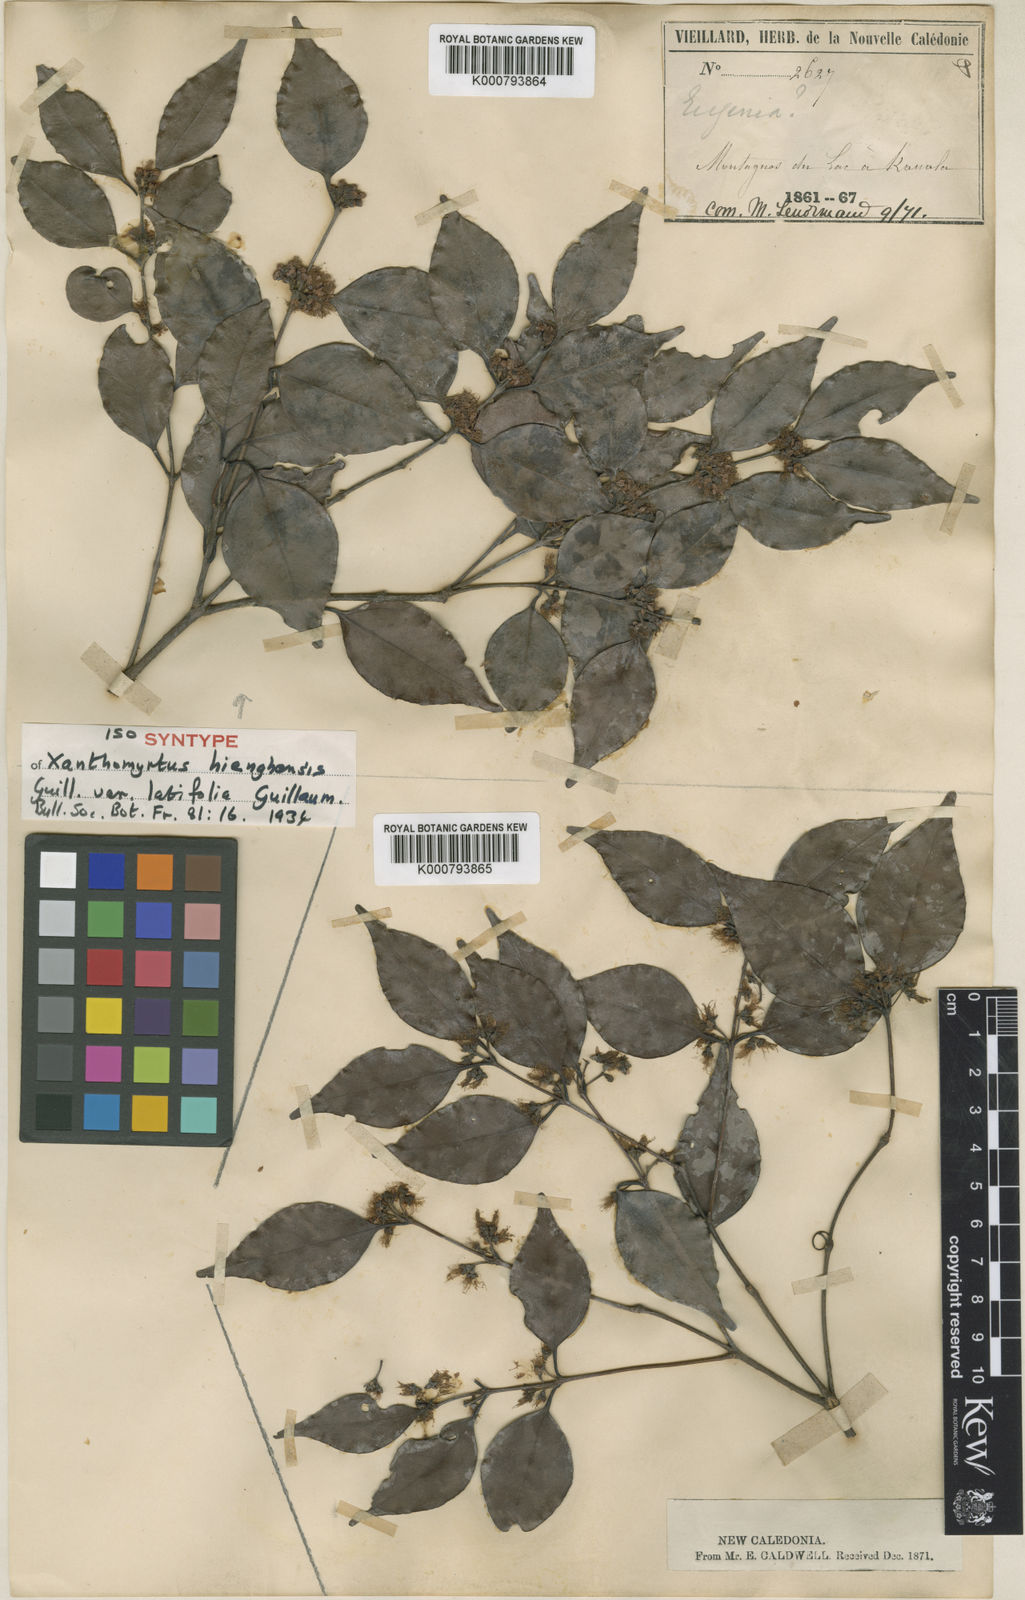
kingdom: Plantae
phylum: Tracheophyta
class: Magnoliopsida
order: Myrtales
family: Myrtaceae
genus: Xanthomyrtus
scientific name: Xanthomyrtus hienghenensis
